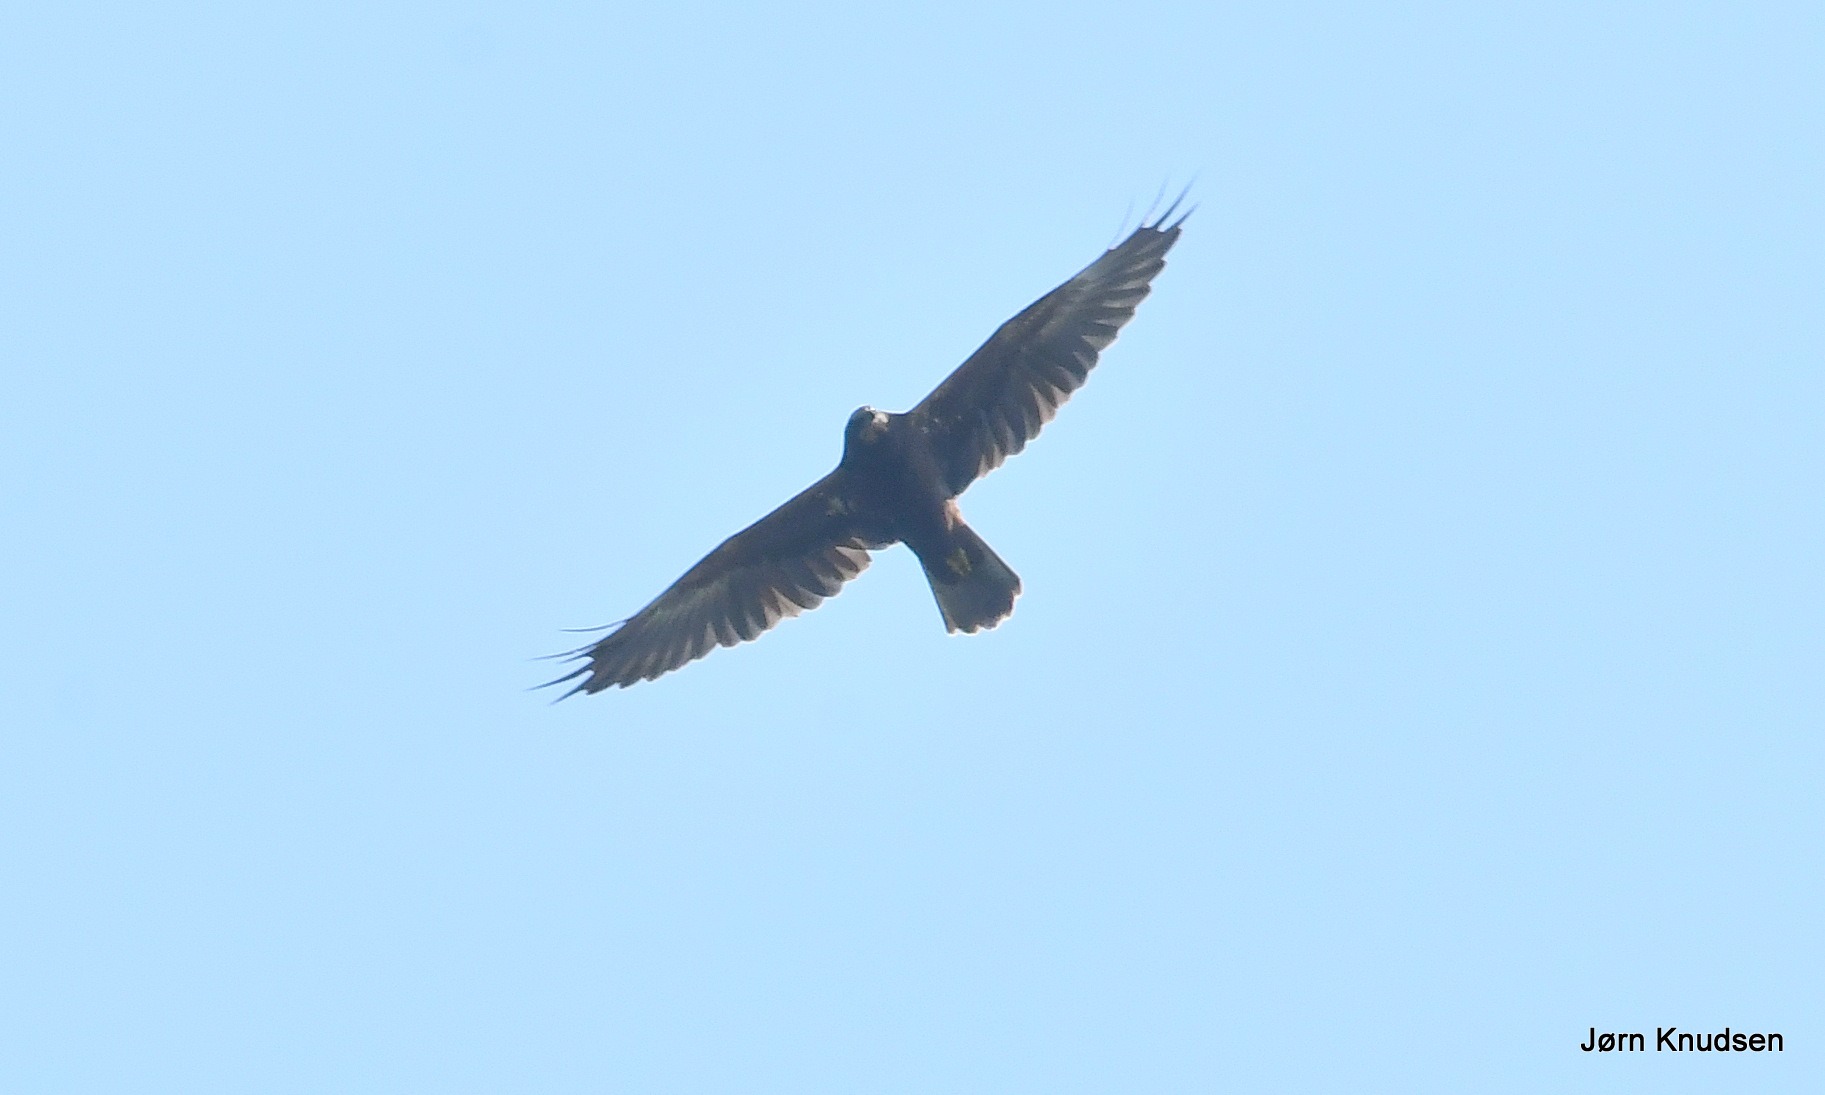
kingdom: Animalia
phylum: Chordata
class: Aves
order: Accipitriformes
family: Accipitridae
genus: Circus
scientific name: Circus aeruginosus
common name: Rørhøg
